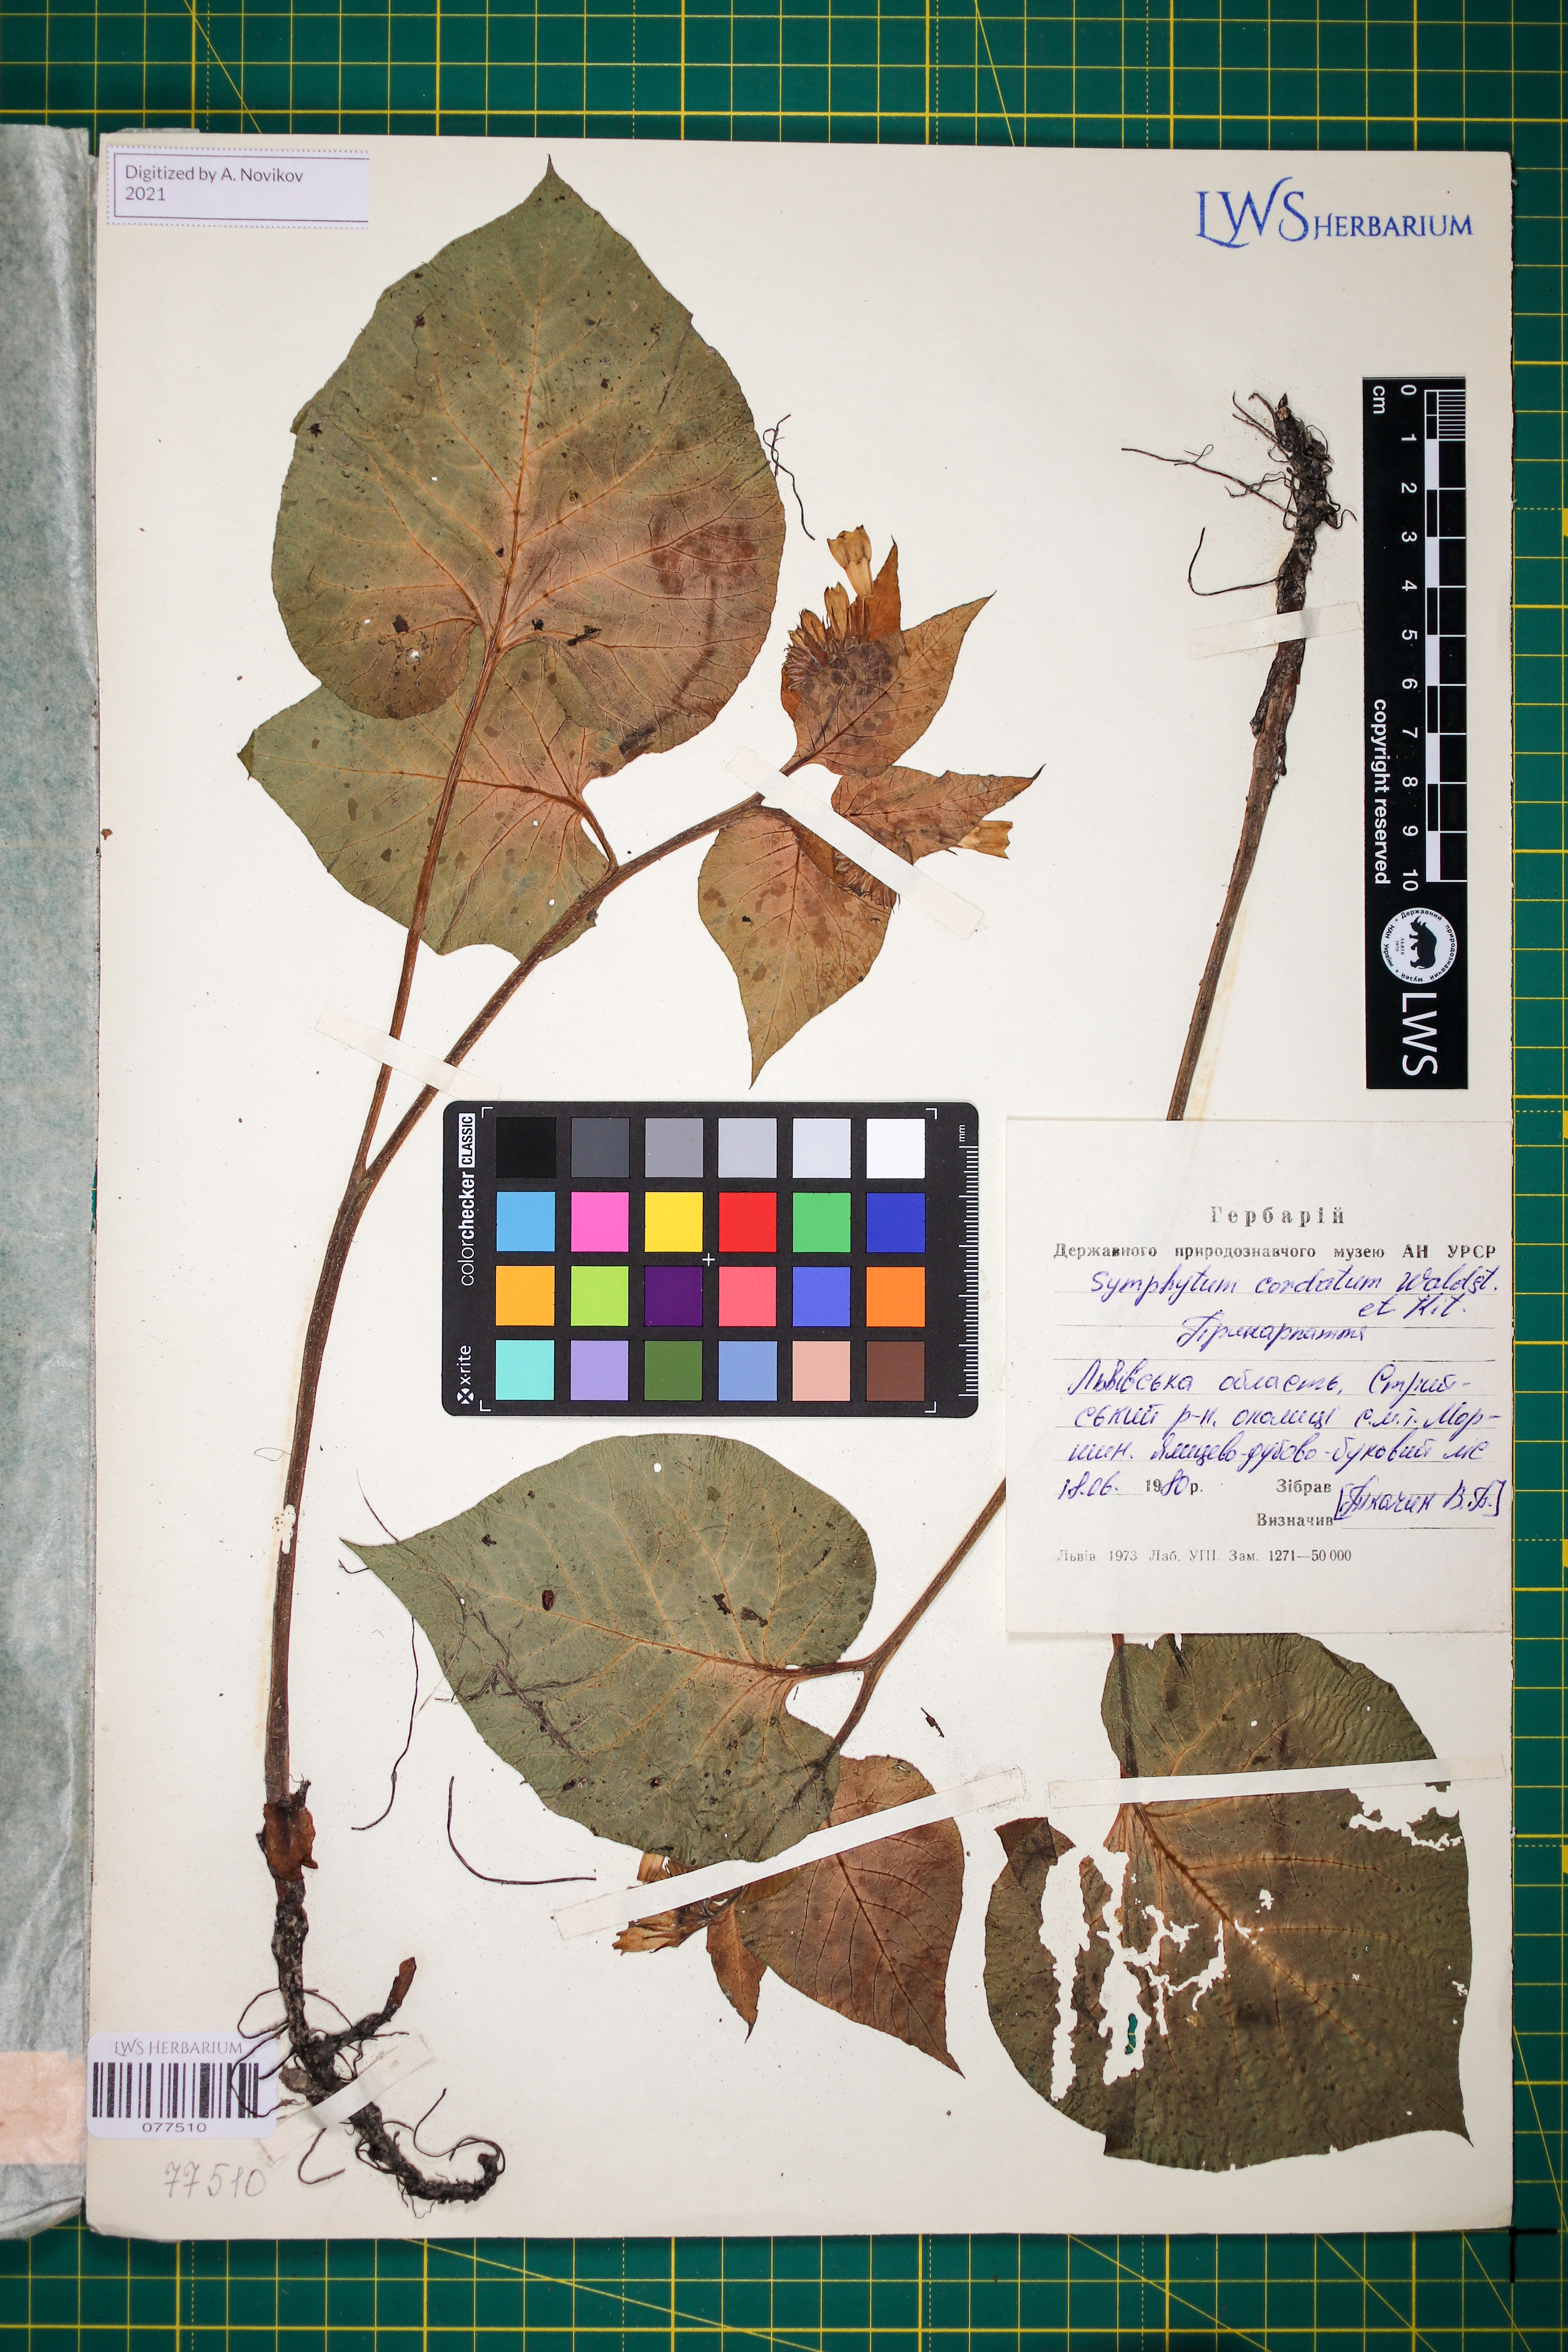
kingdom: Plantae
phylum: Tracheophyta
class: Magnoliopsida
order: Boraginales
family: Boraginaceae
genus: Symphytum
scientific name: Symphytum cordatum
